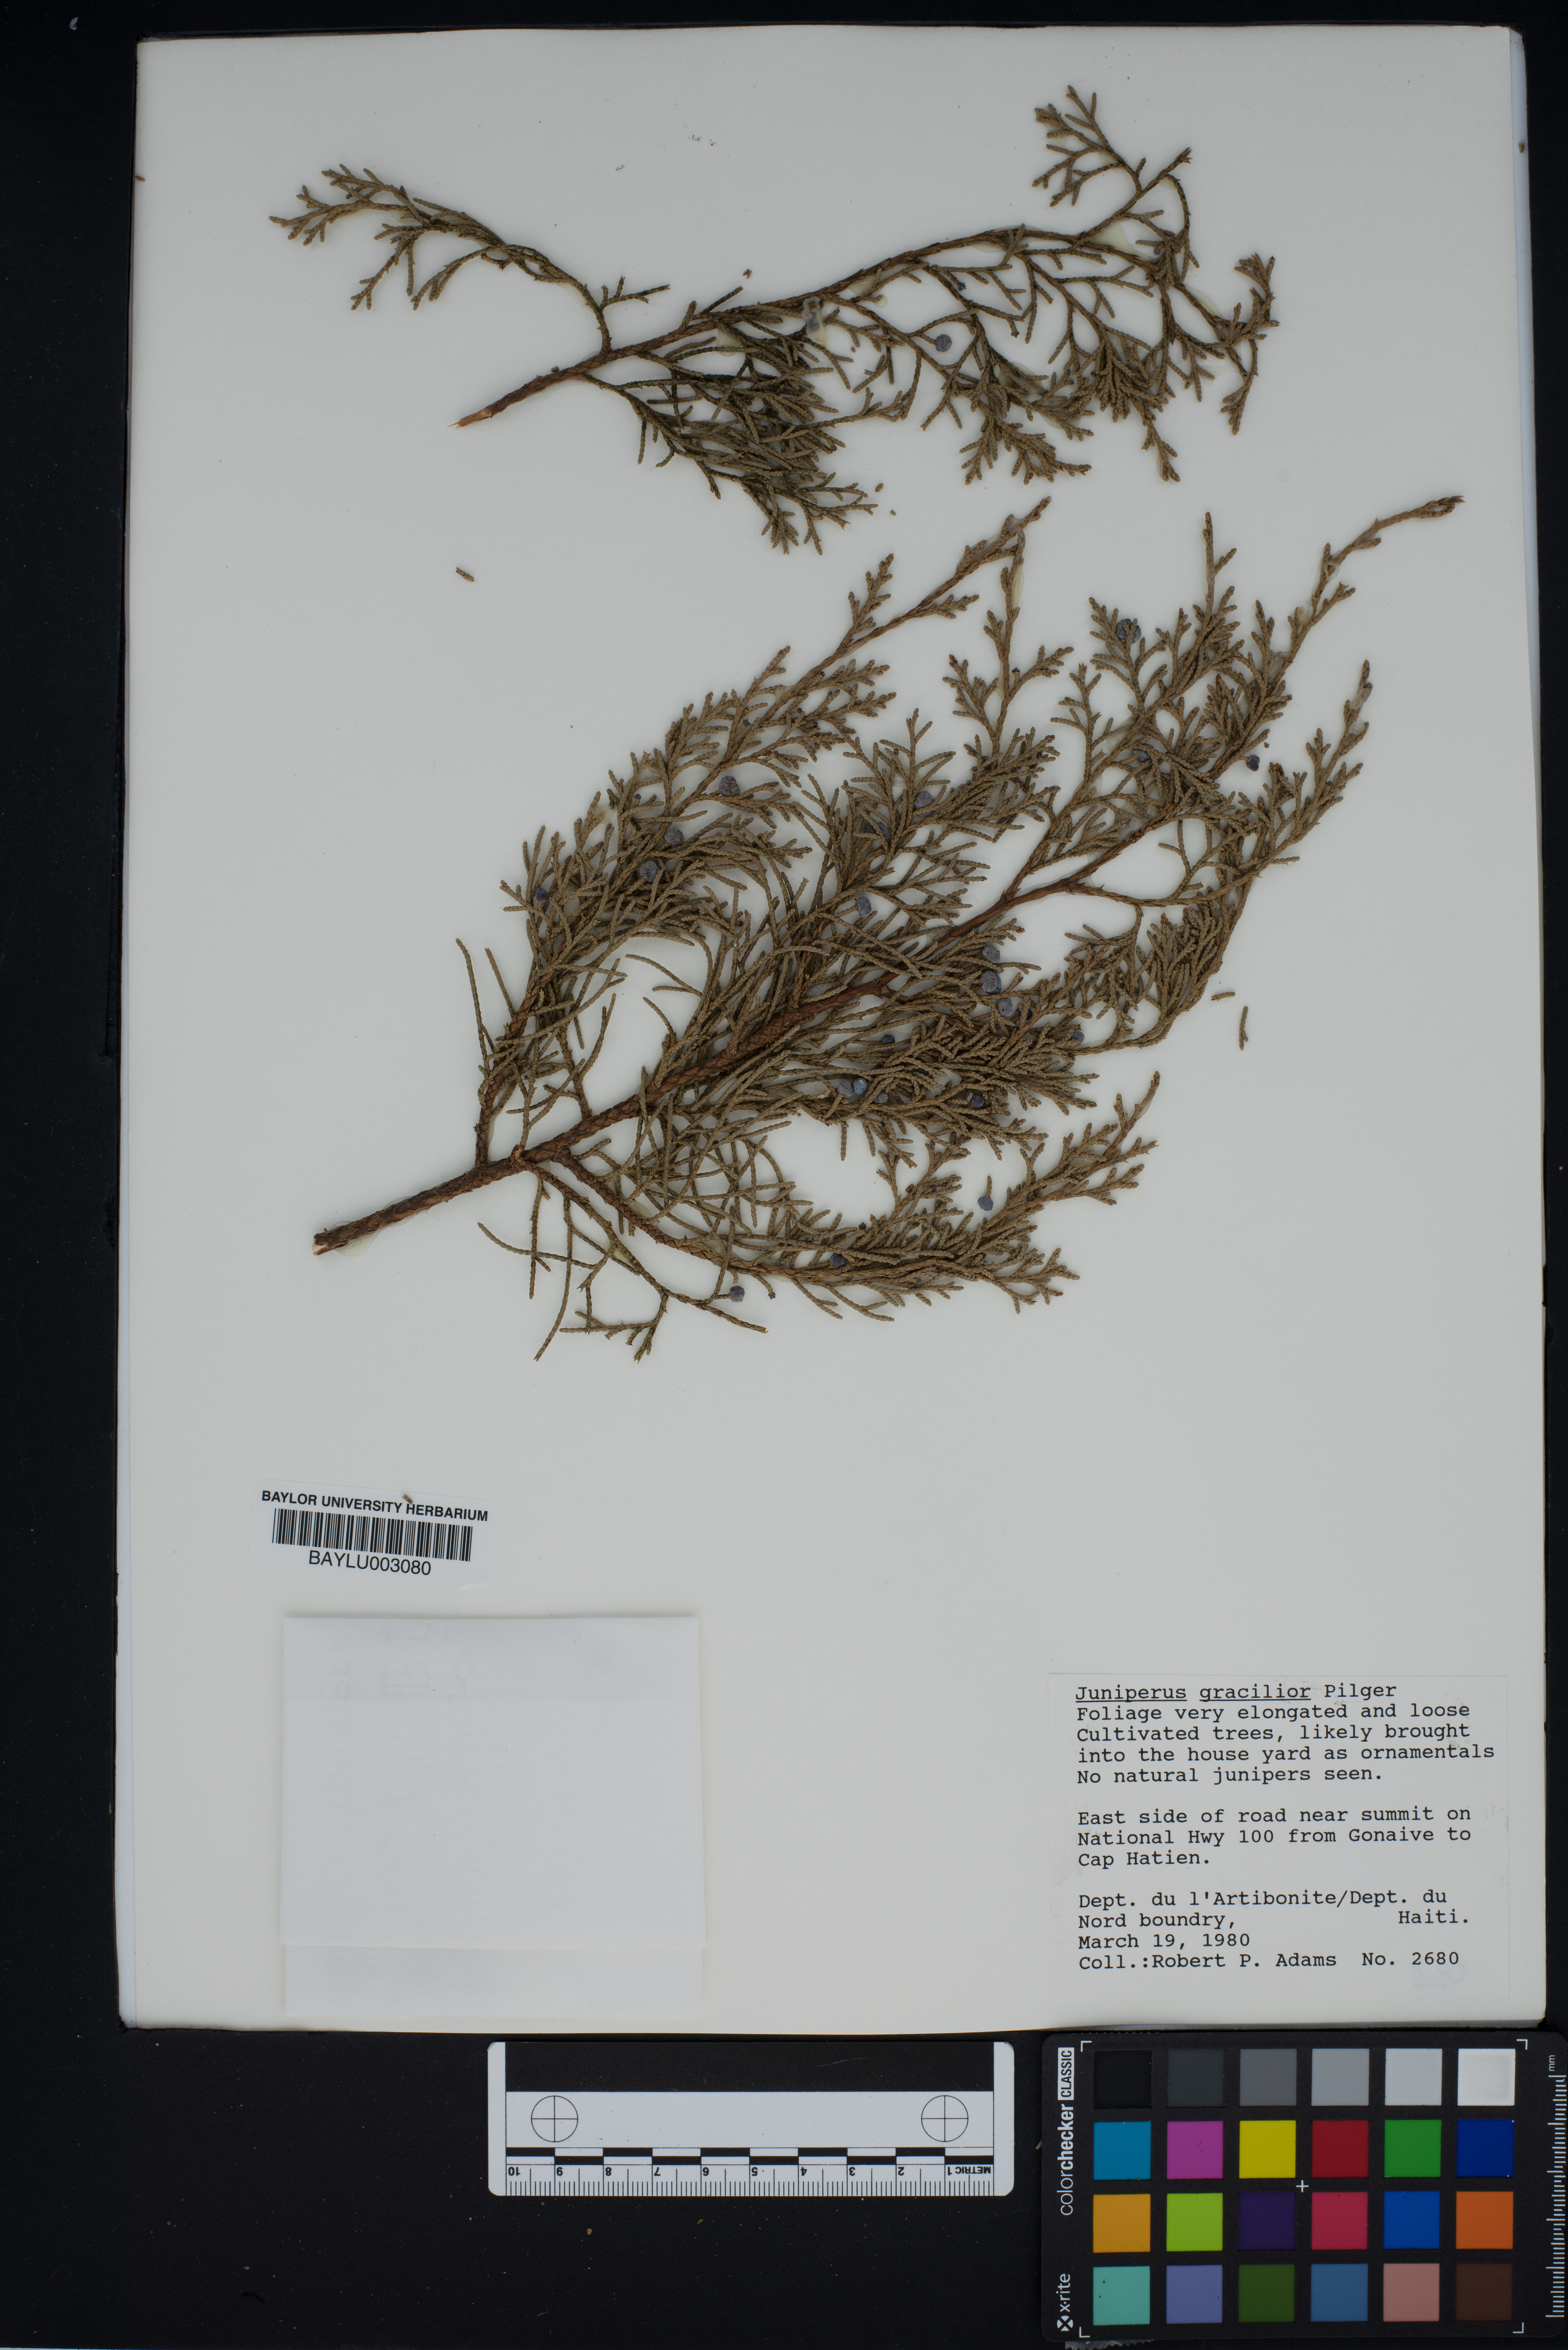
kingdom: Plantae
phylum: Tracheophyta
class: Pinopsida
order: Pinales
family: Cupressaceae
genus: Juniperus
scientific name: Juniperus gracilior
